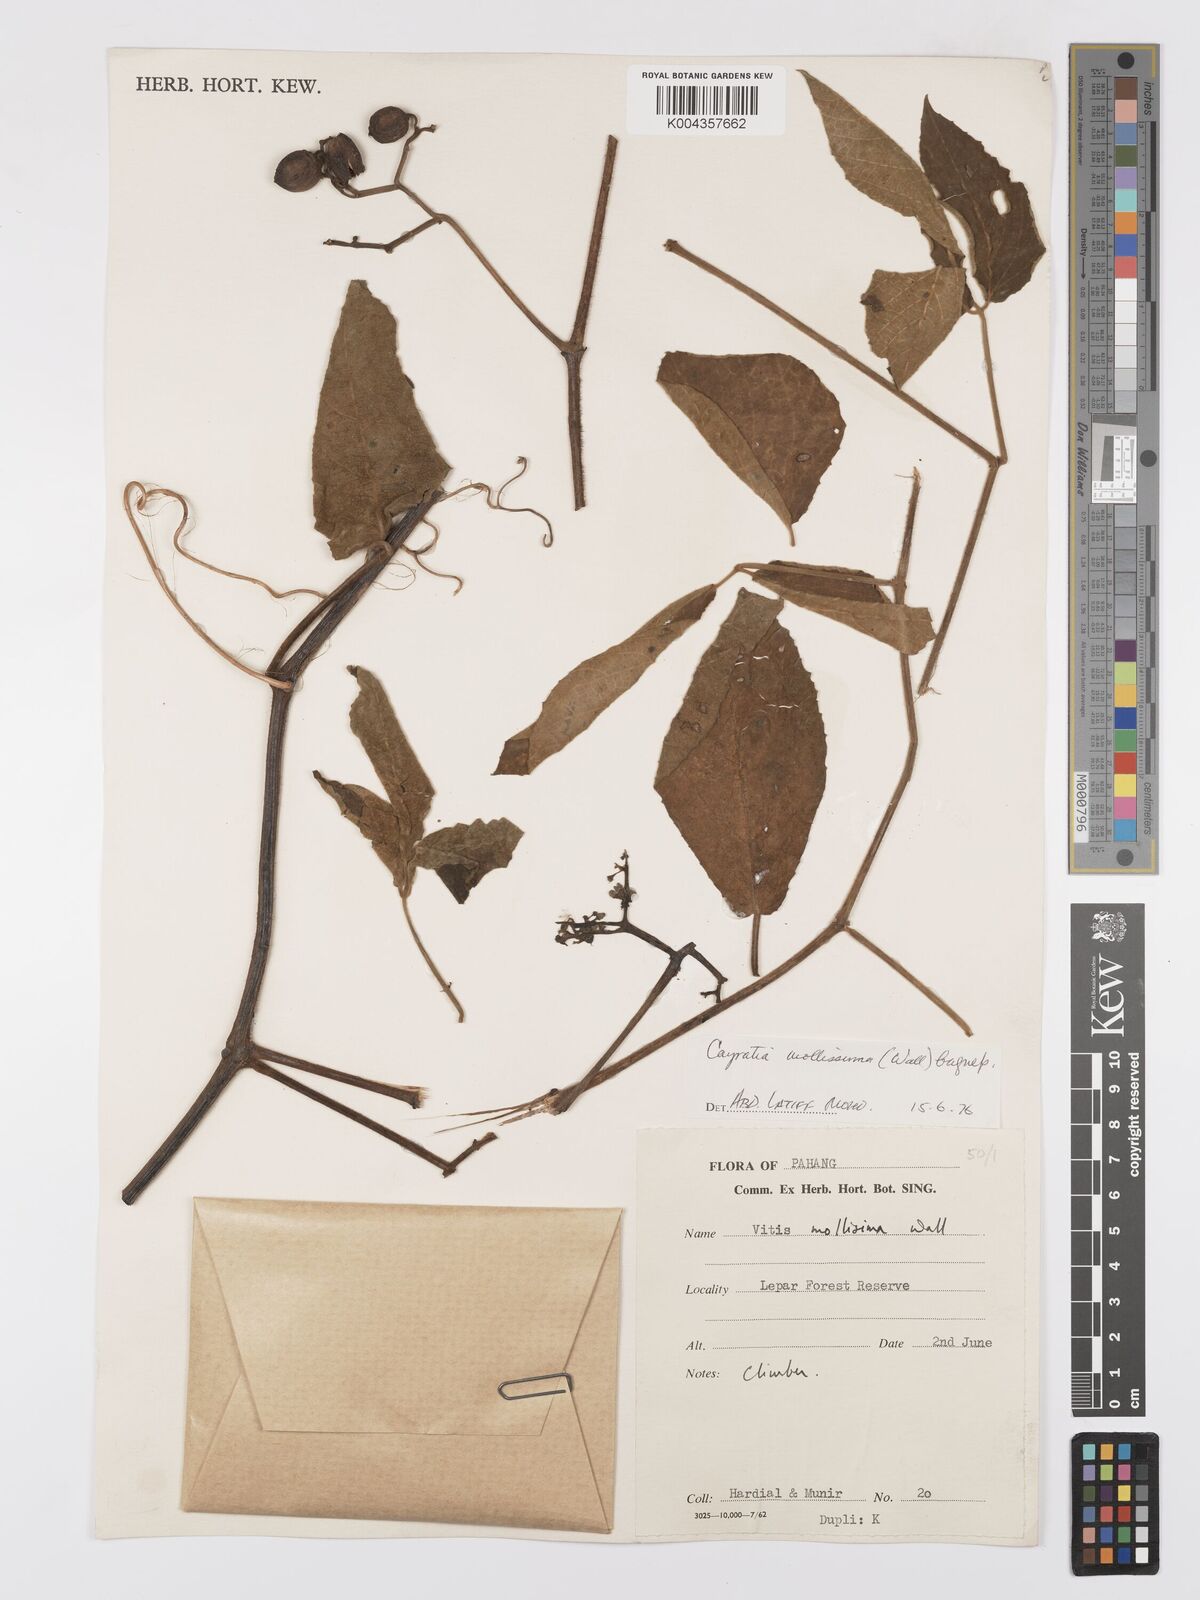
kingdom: Plantae
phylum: Tracheophyta
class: Magnoliopsida
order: Vitales
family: Vitaceae
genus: Cayratia
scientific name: Cayratia mollissima
